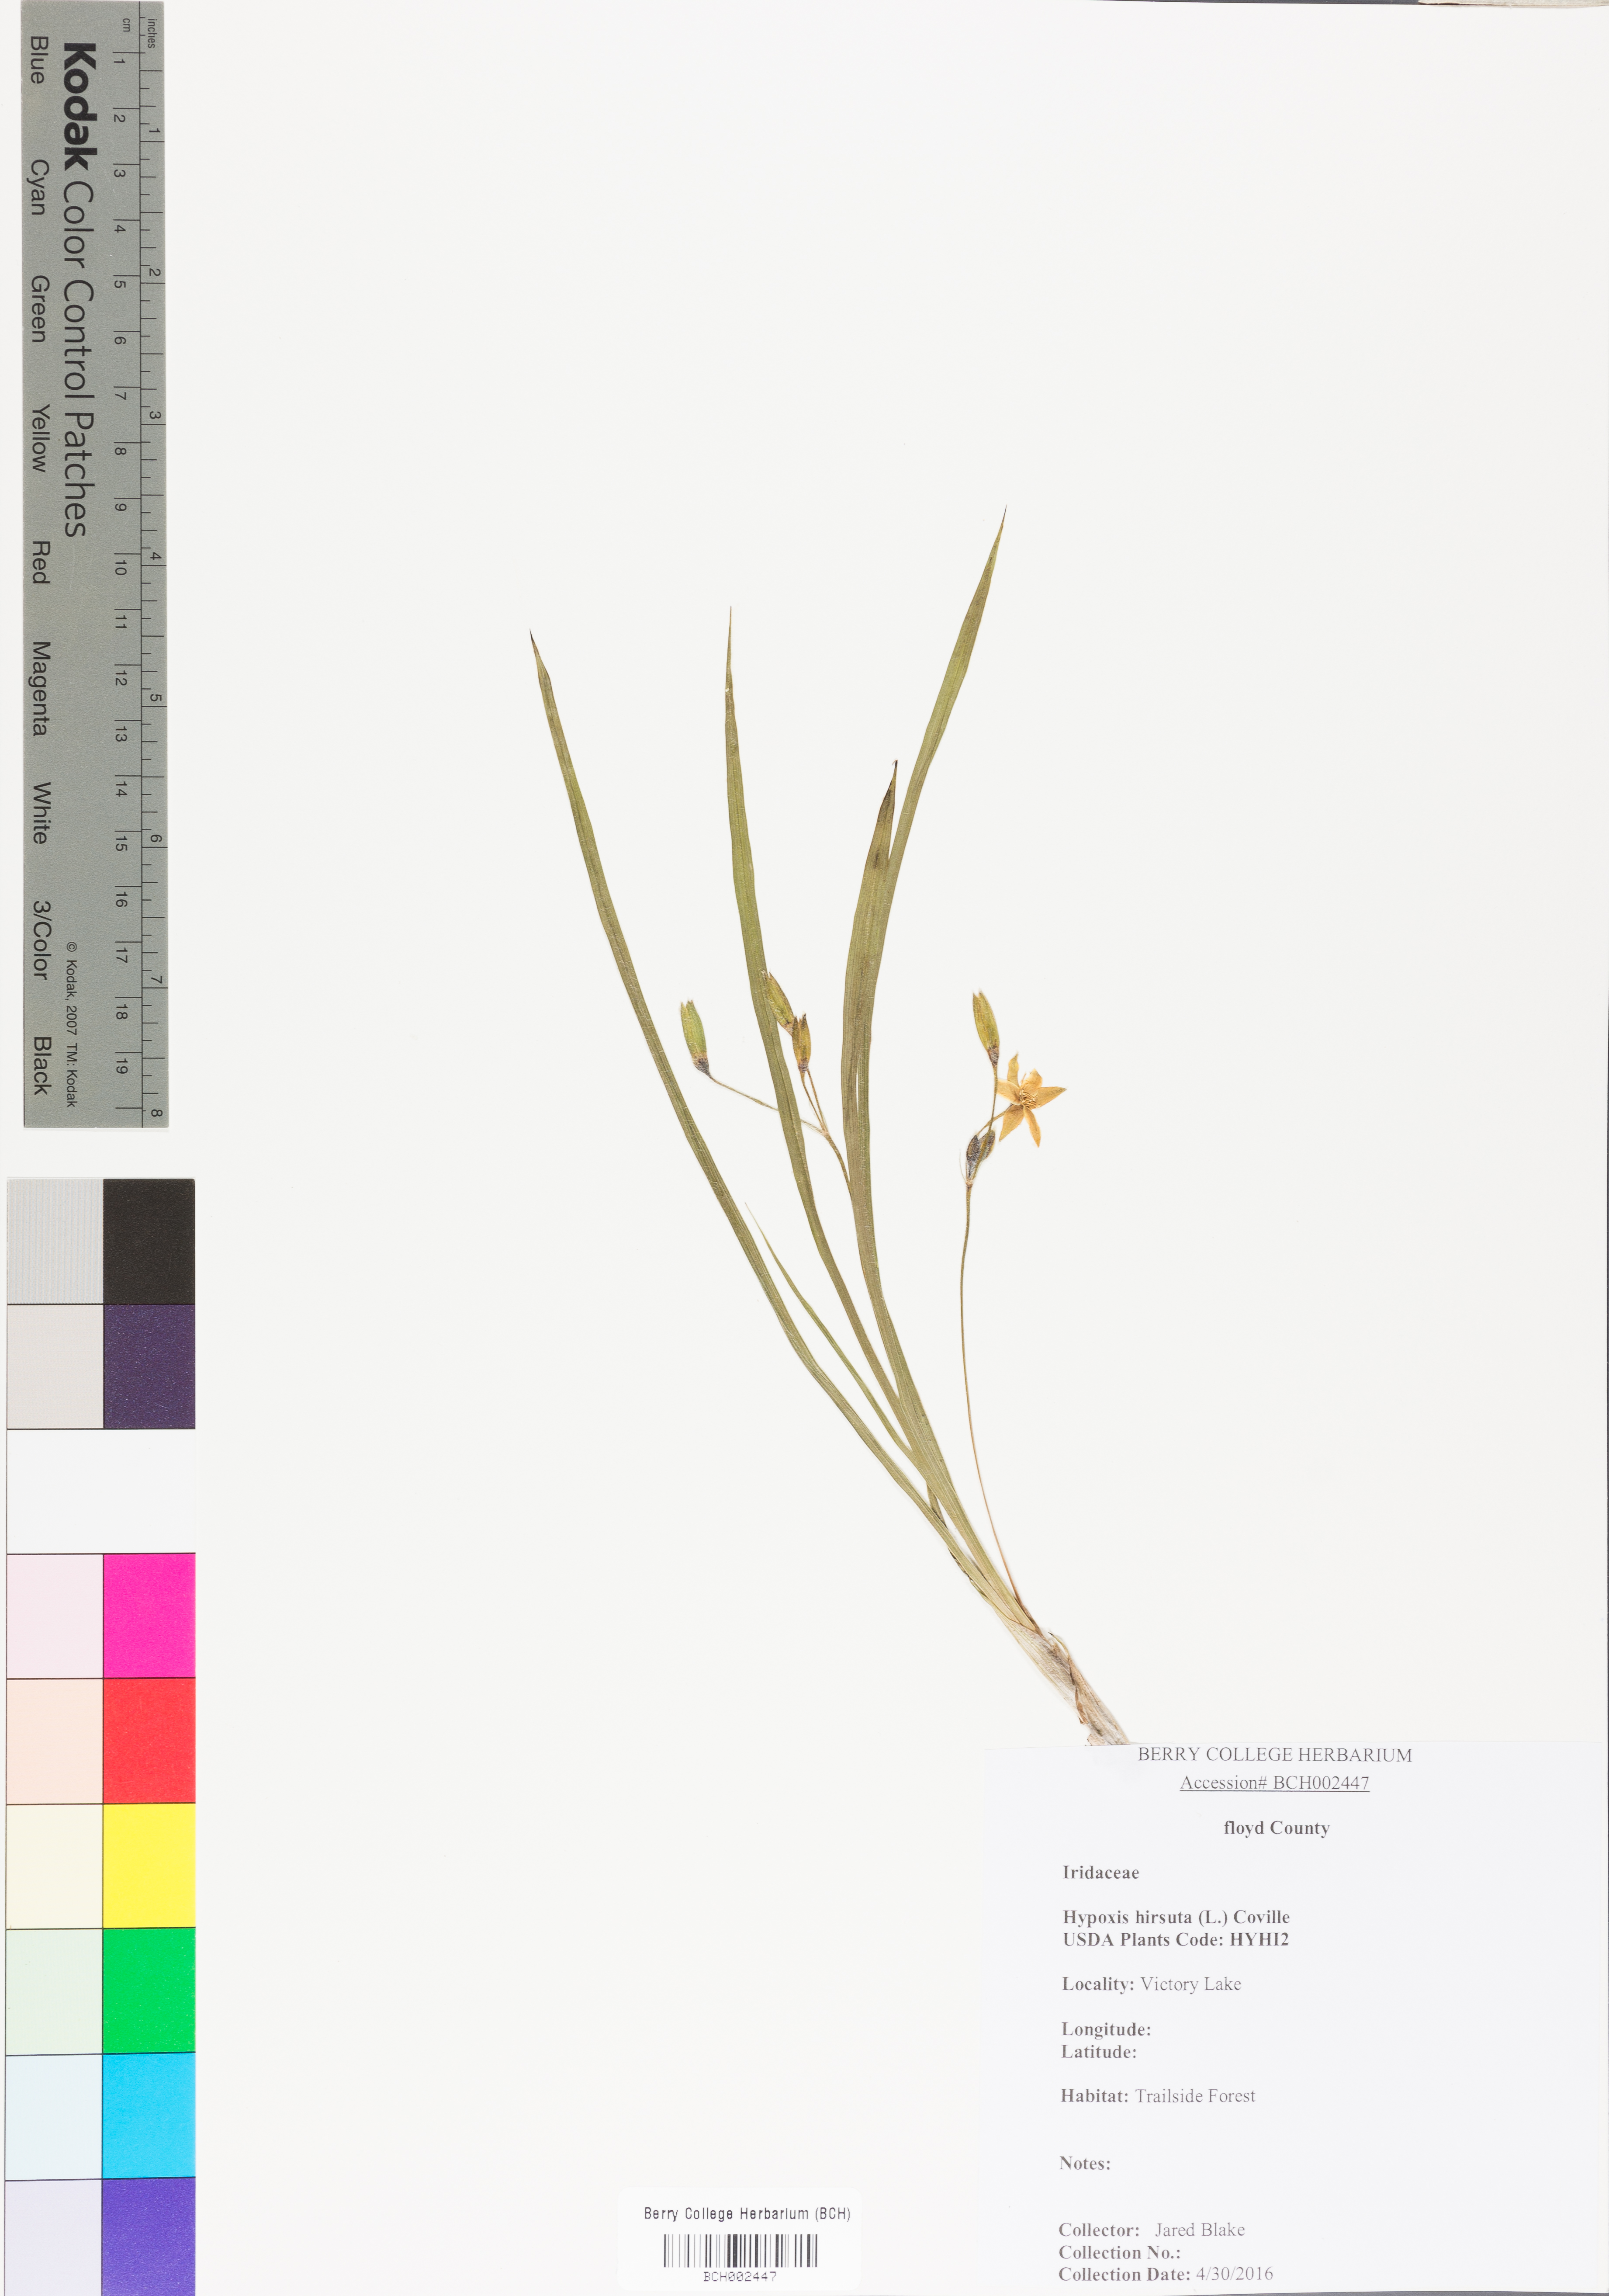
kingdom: Plantae
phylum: Tracheophyta
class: Liliopsida
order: Asparagales
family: Hypoxidaceae
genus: Hypoxis
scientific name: Hypoxis hirsuta
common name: Common goldstar
